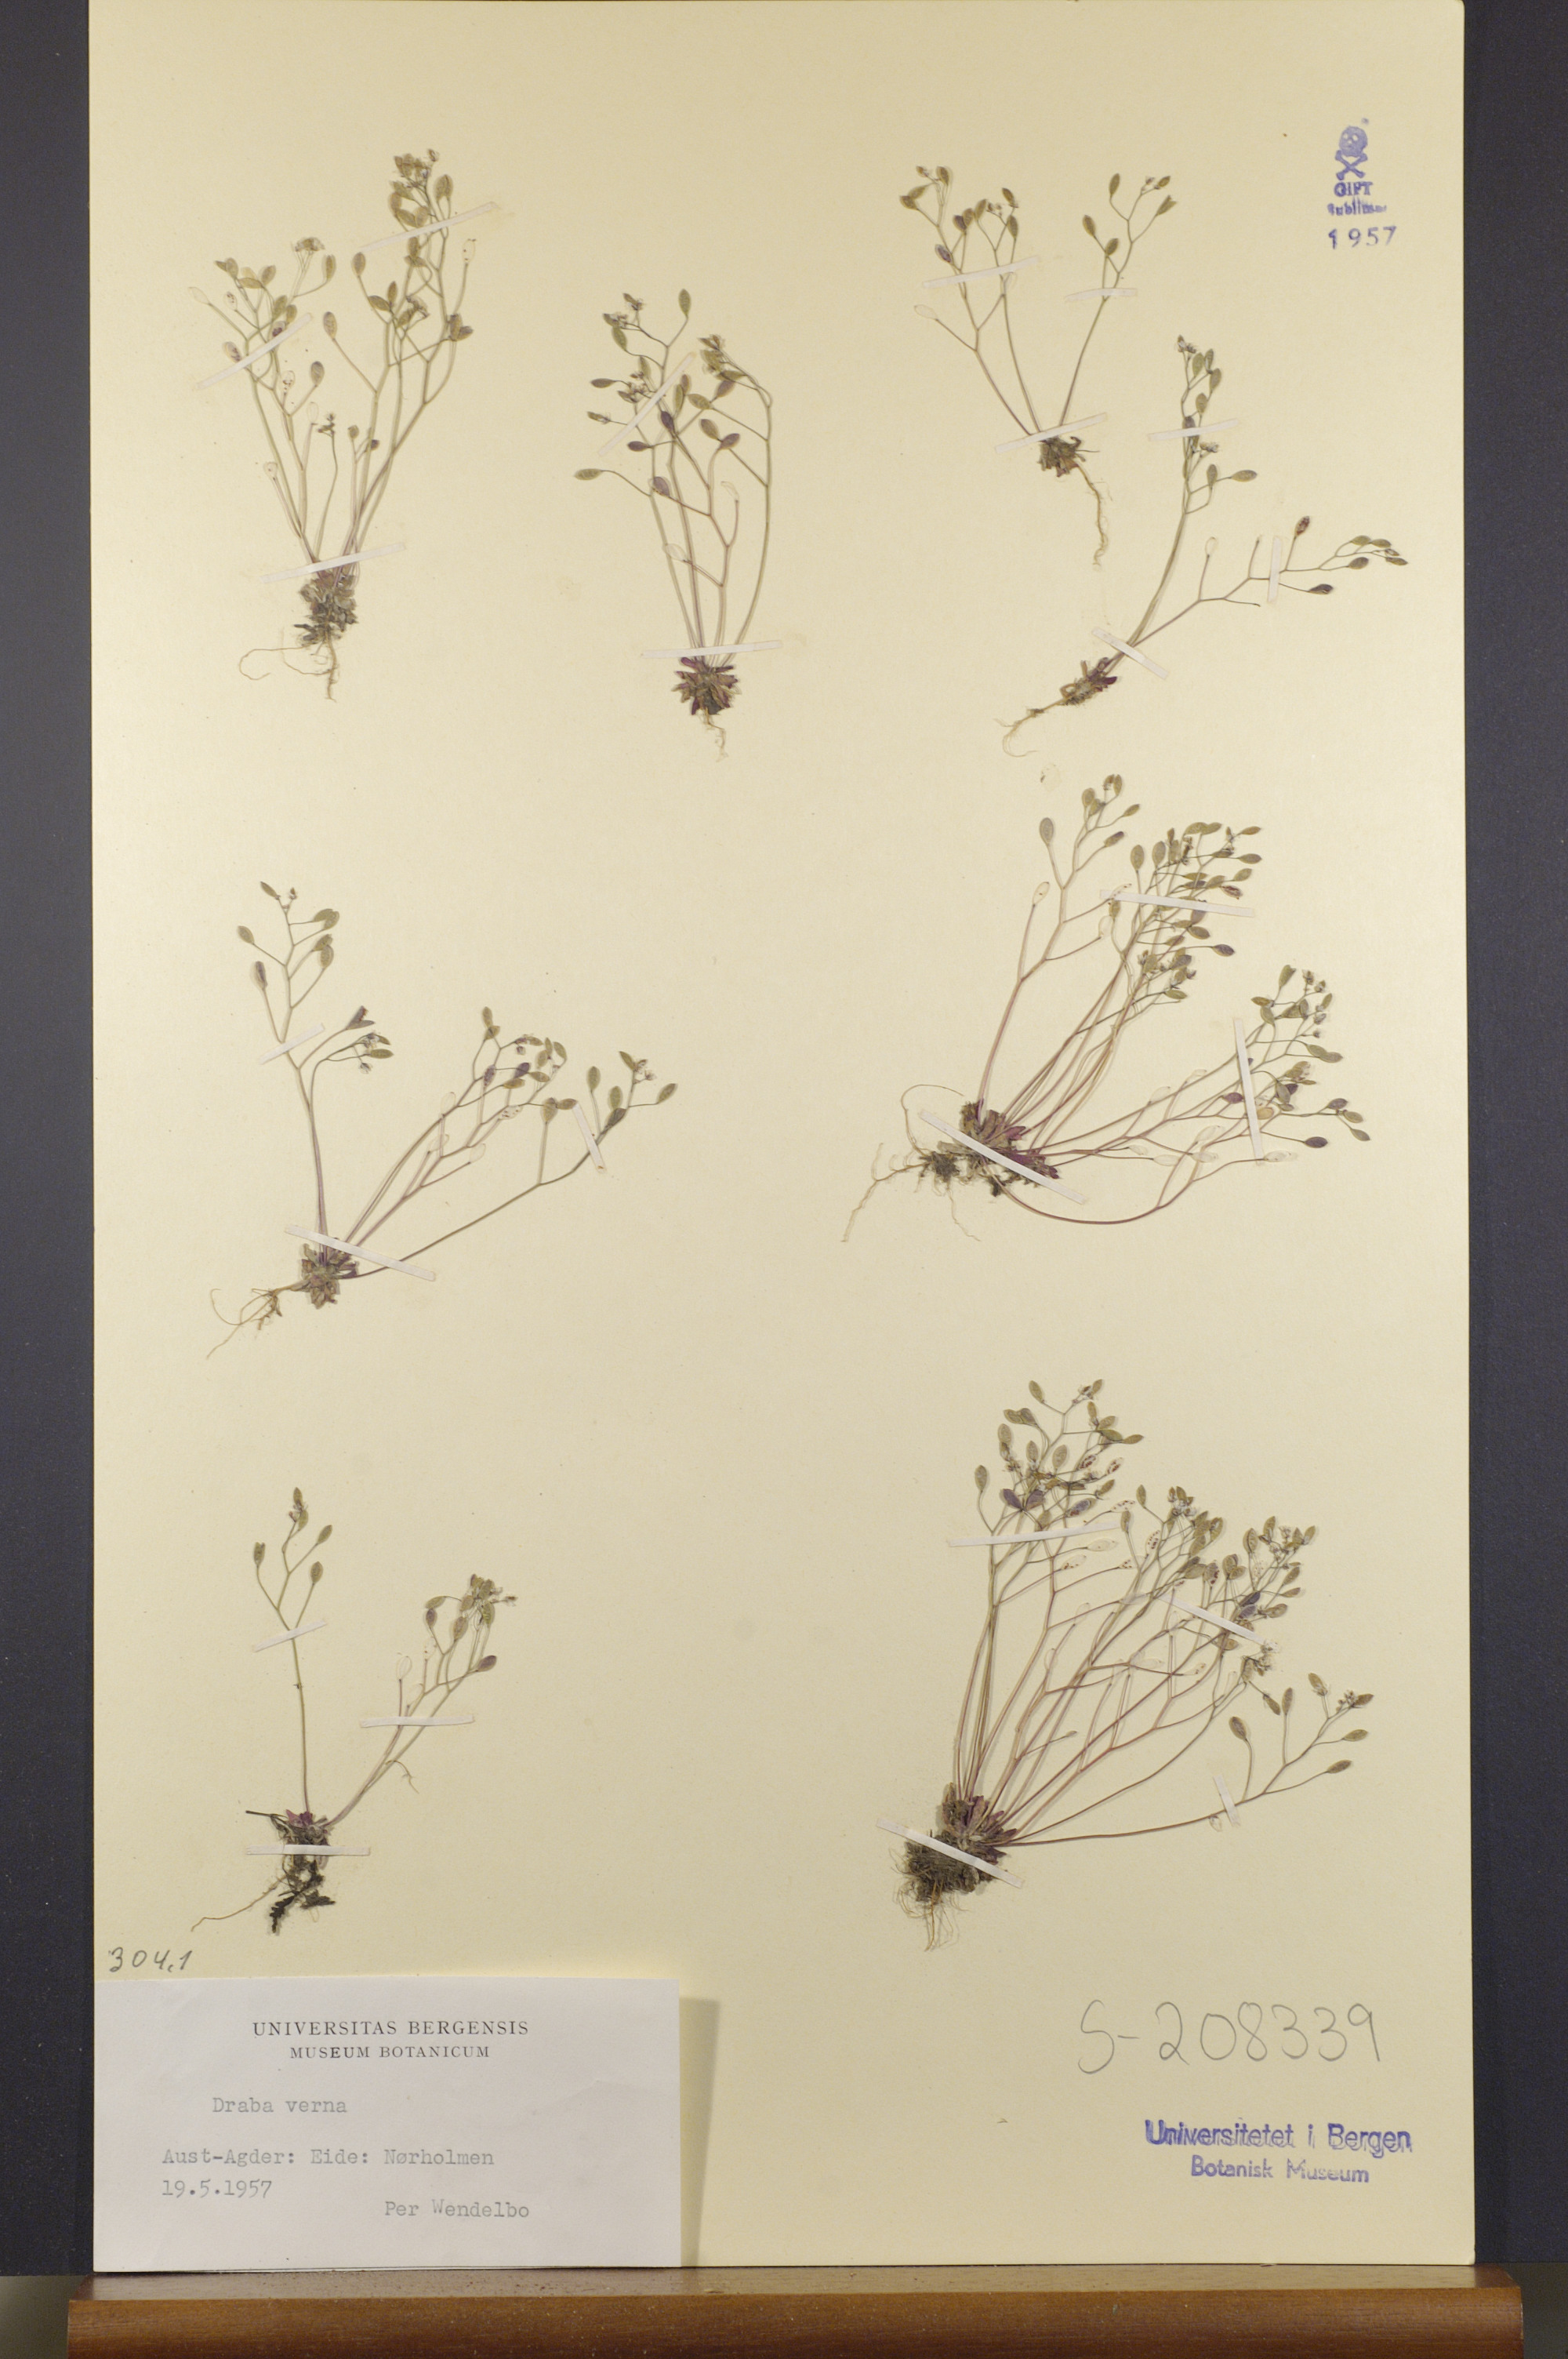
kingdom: Plantae
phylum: Tracheophyta
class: Magnoliopsida
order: Brassicales
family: Brassicaceae
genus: Draba
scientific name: Draba verna
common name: Spring draba
